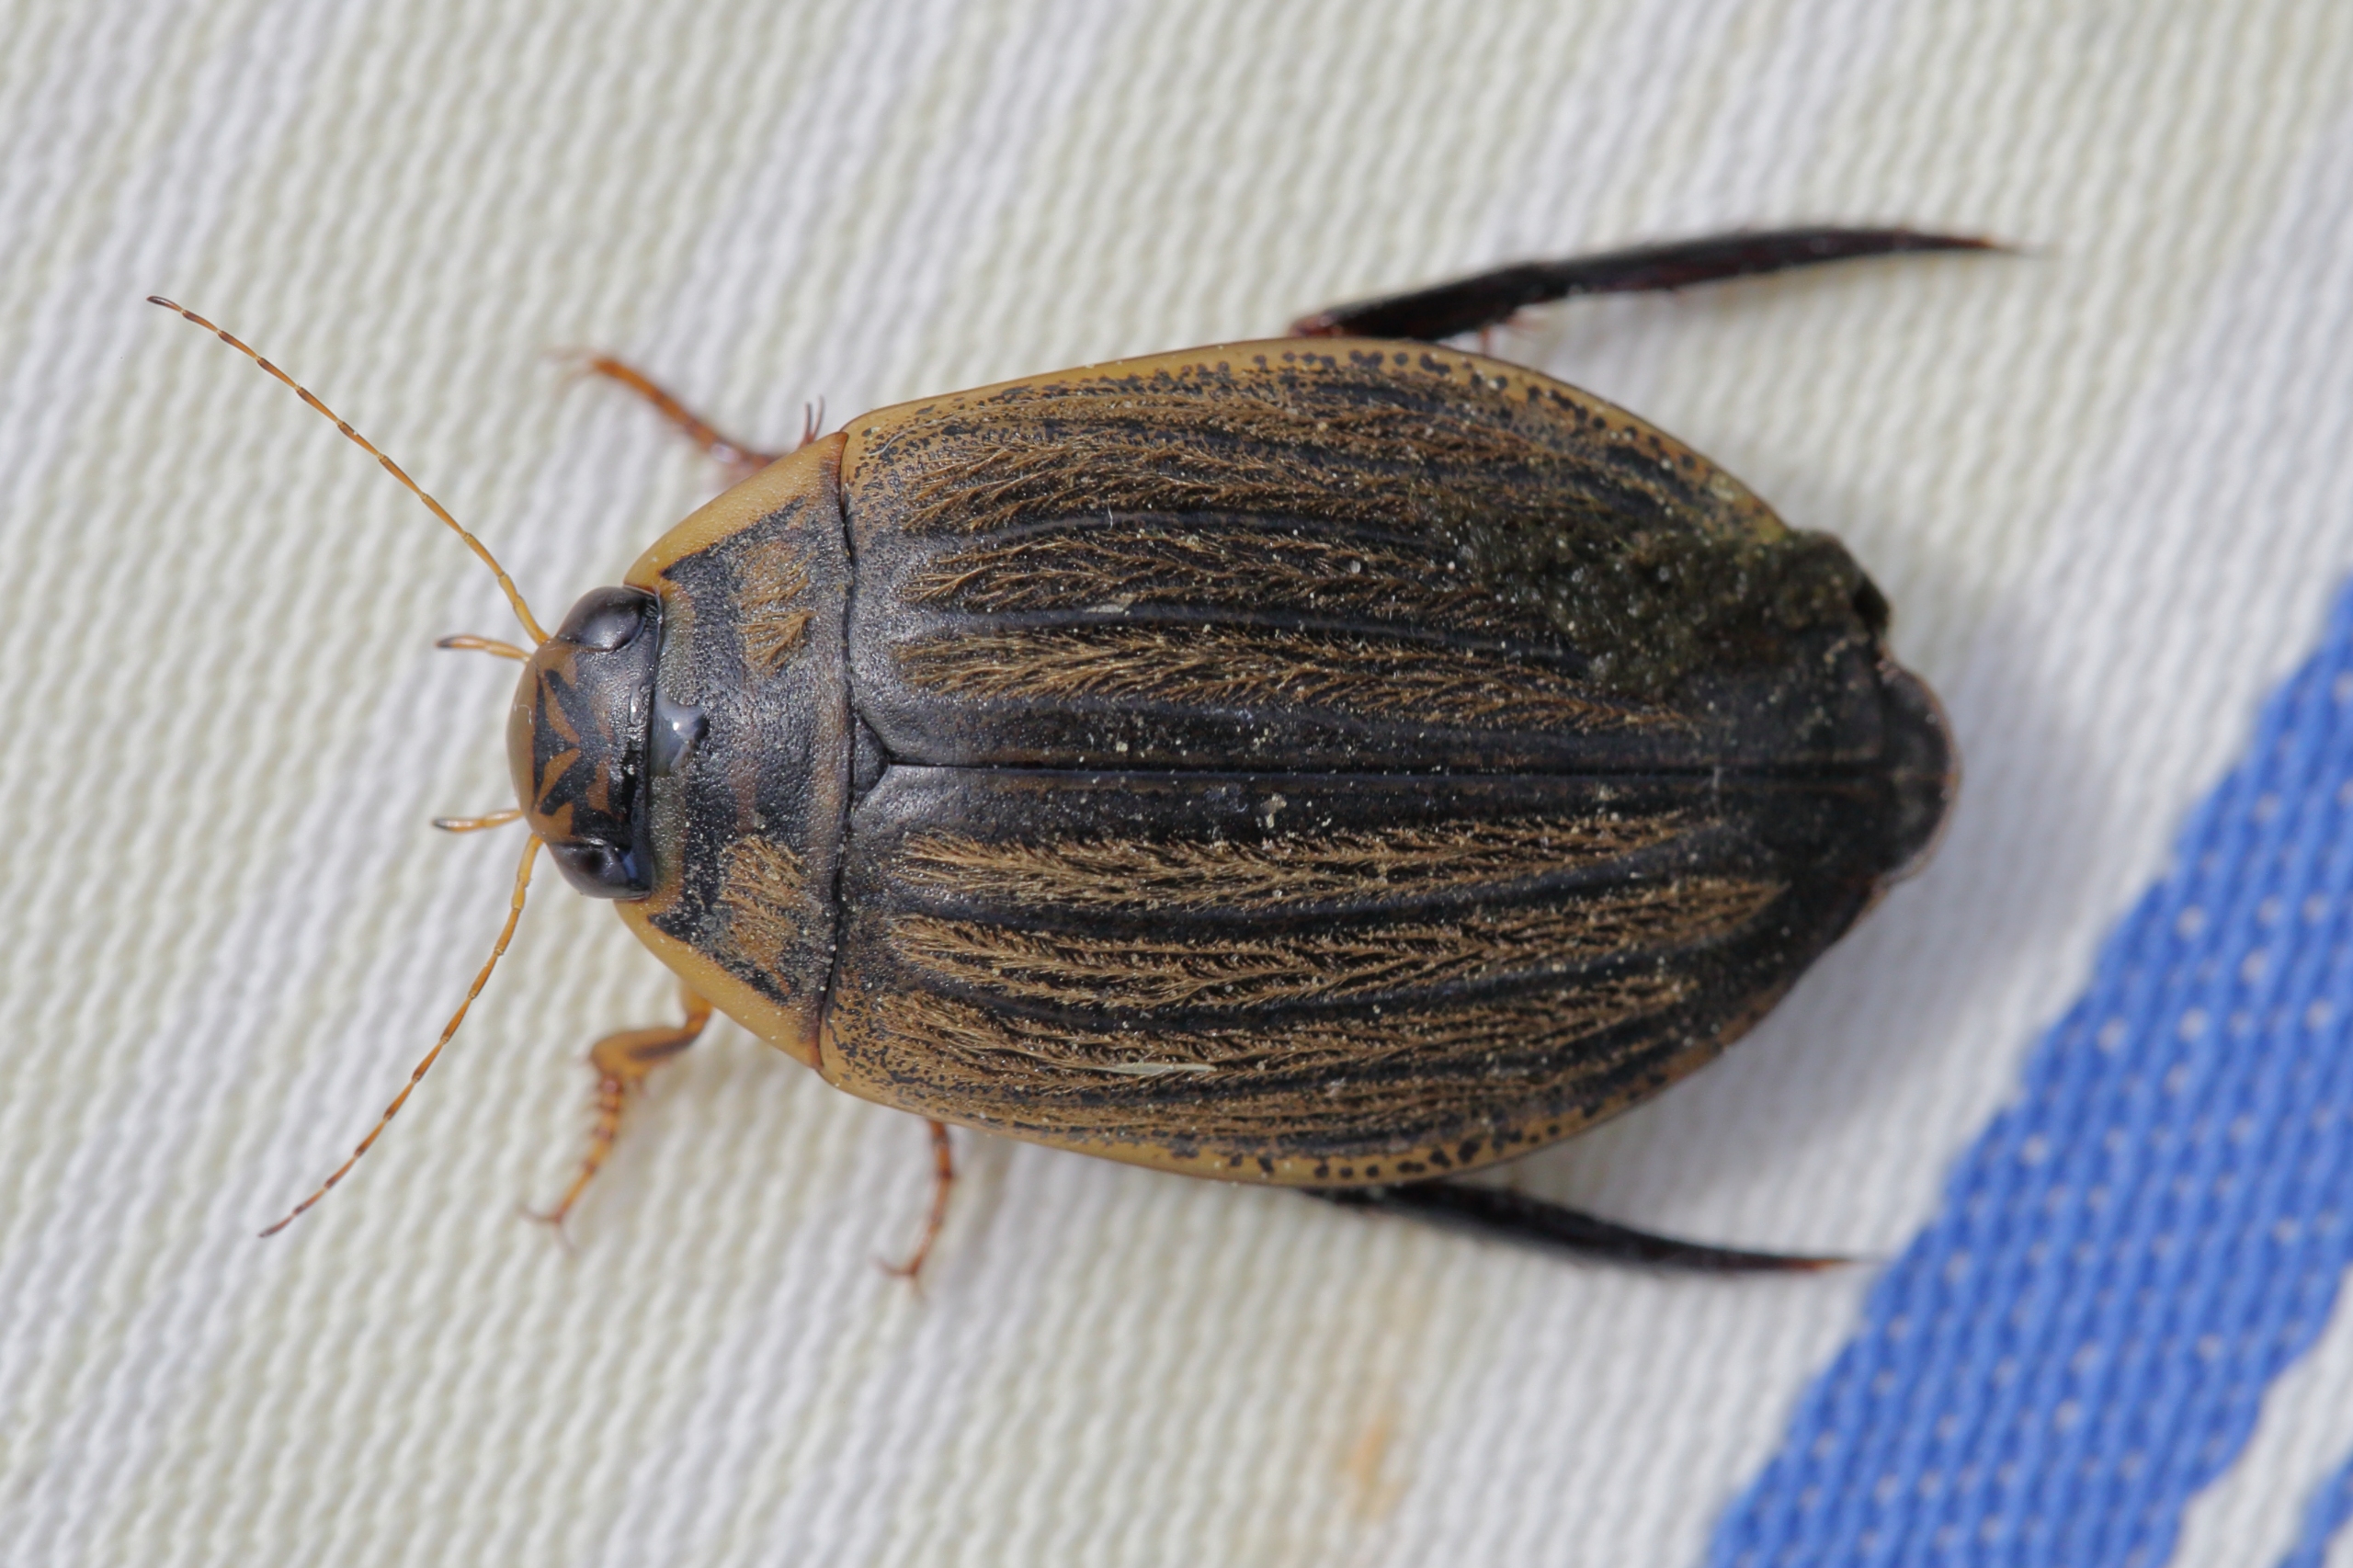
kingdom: Animalia
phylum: Arthropoda
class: Insecta
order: Coleoptera
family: Dytiscidae
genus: Acilius
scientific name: Acilius sulcatus
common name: Stribet skivevandkalv
